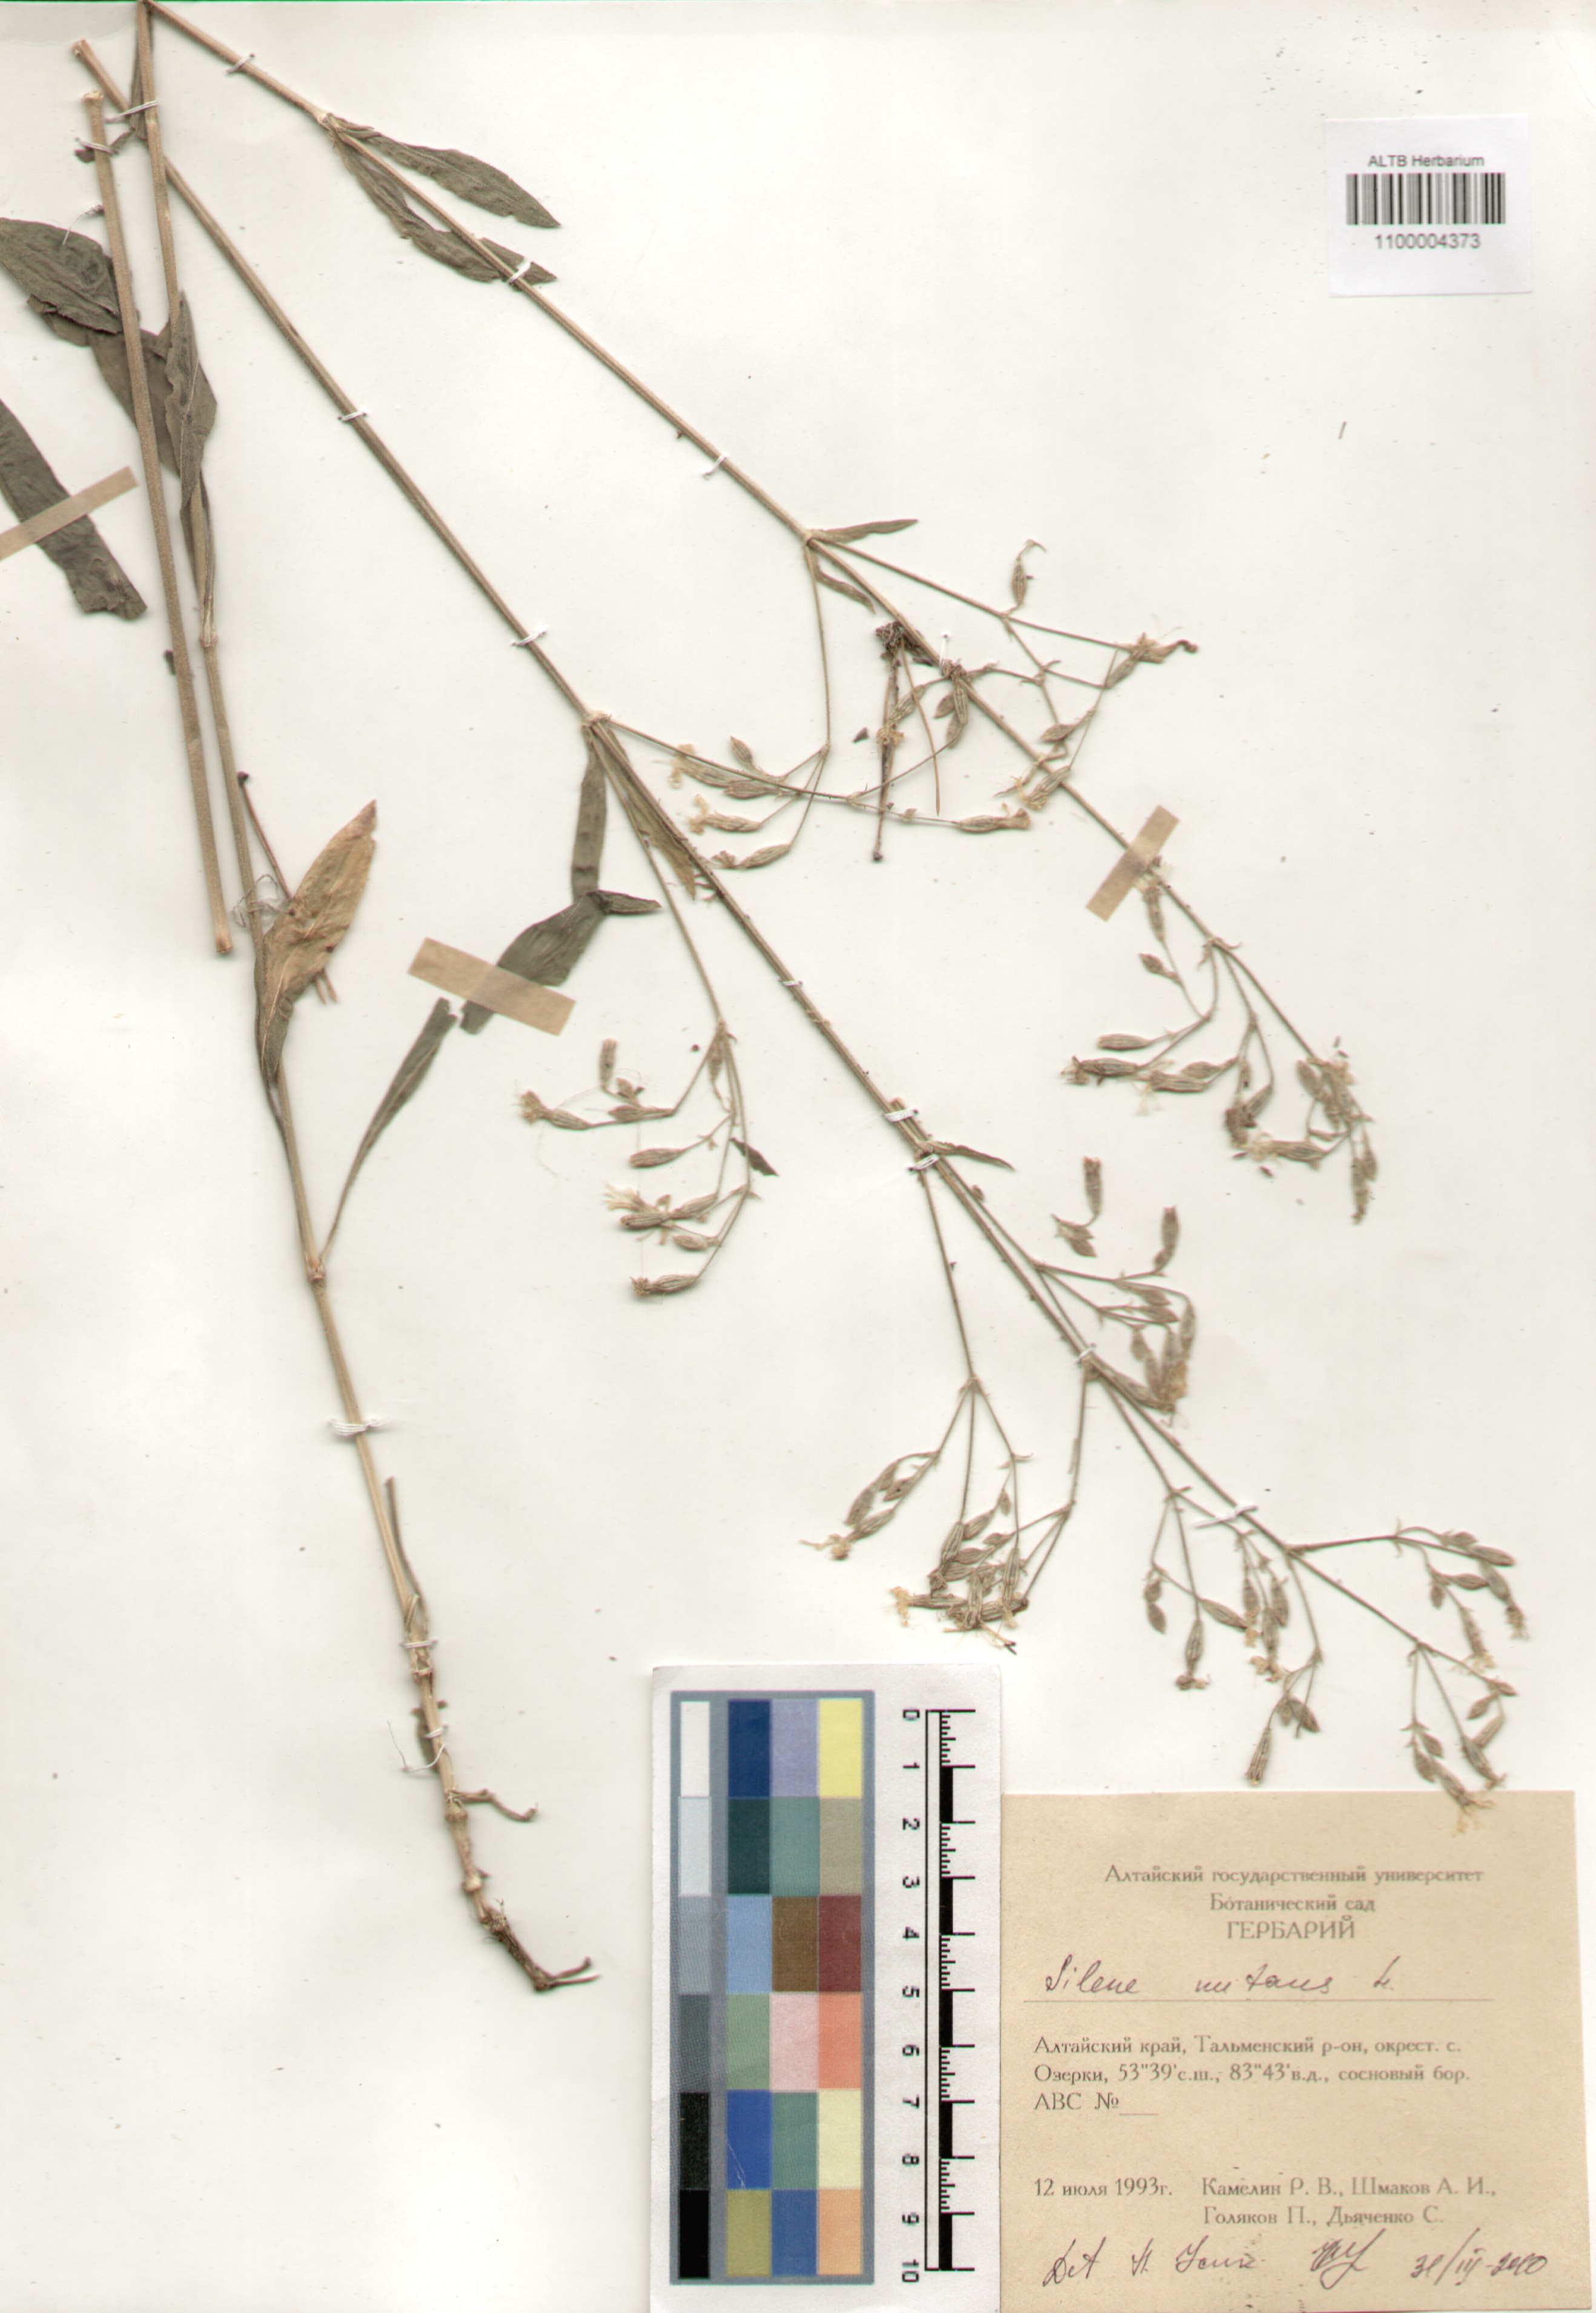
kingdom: Plantae
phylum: Tracheophyta
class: Magnoliopsida
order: Caryophyllales
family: Caryophyllaceae
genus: Silene
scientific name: Silene nutans
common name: Nottingham catchfly
